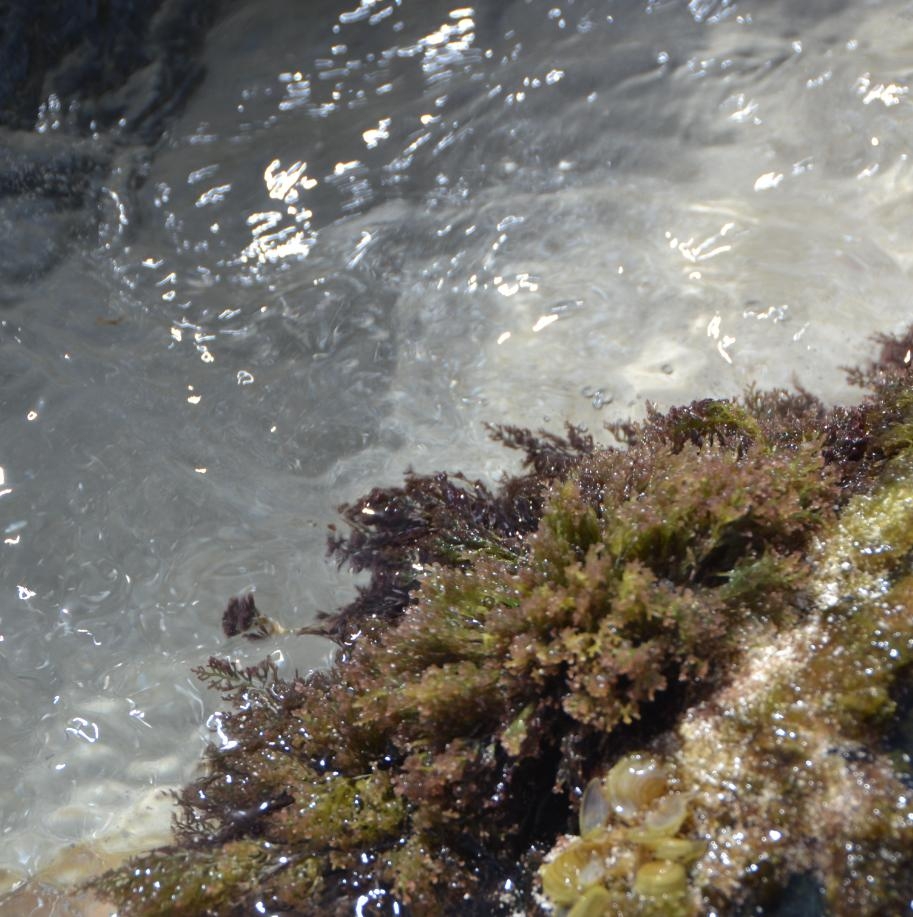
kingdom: Plantae
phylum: Rhodophyta
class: Florideophyceae
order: Ceramiales
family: Rhodomelaceae
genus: Laurencia
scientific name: Laurencia caraibica
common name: Red Seaweed
